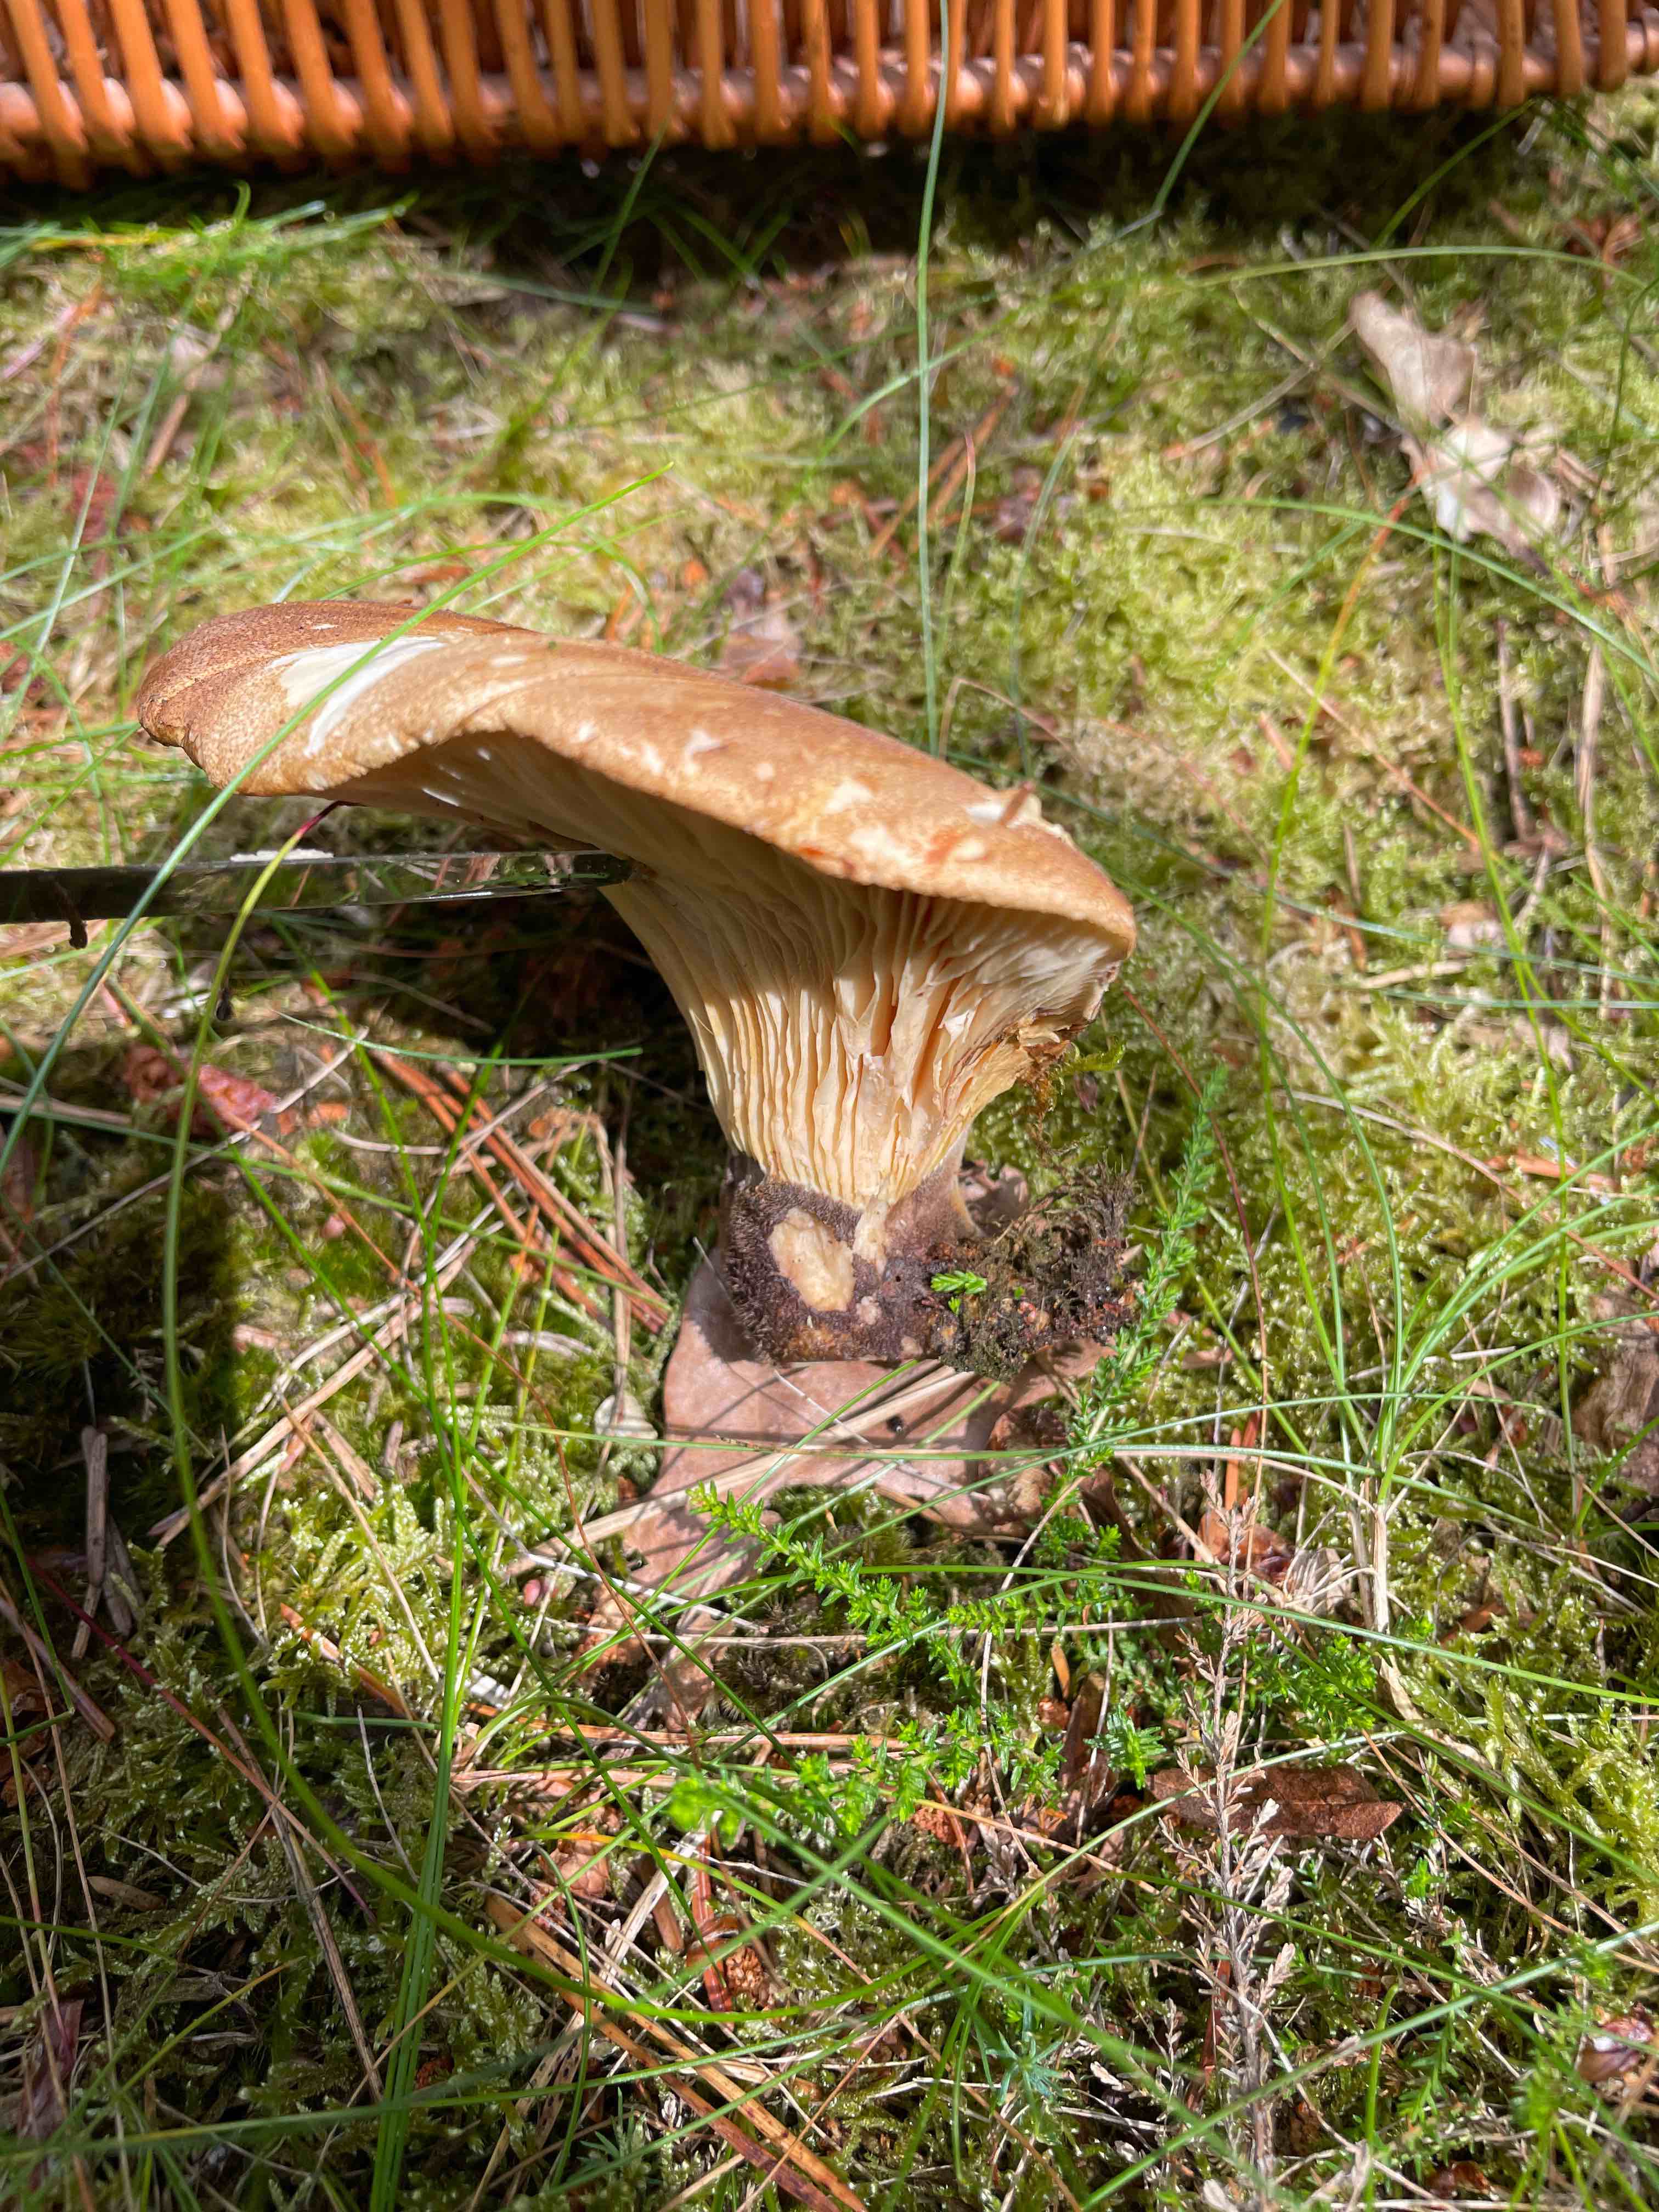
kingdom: Fungi
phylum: Basidiomycota
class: Agaricomycetes
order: Boletales
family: Tapinellaceae
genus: Tapinella
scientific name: Tapinella atrotomentosa
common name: sortfiltet viftesvamp
